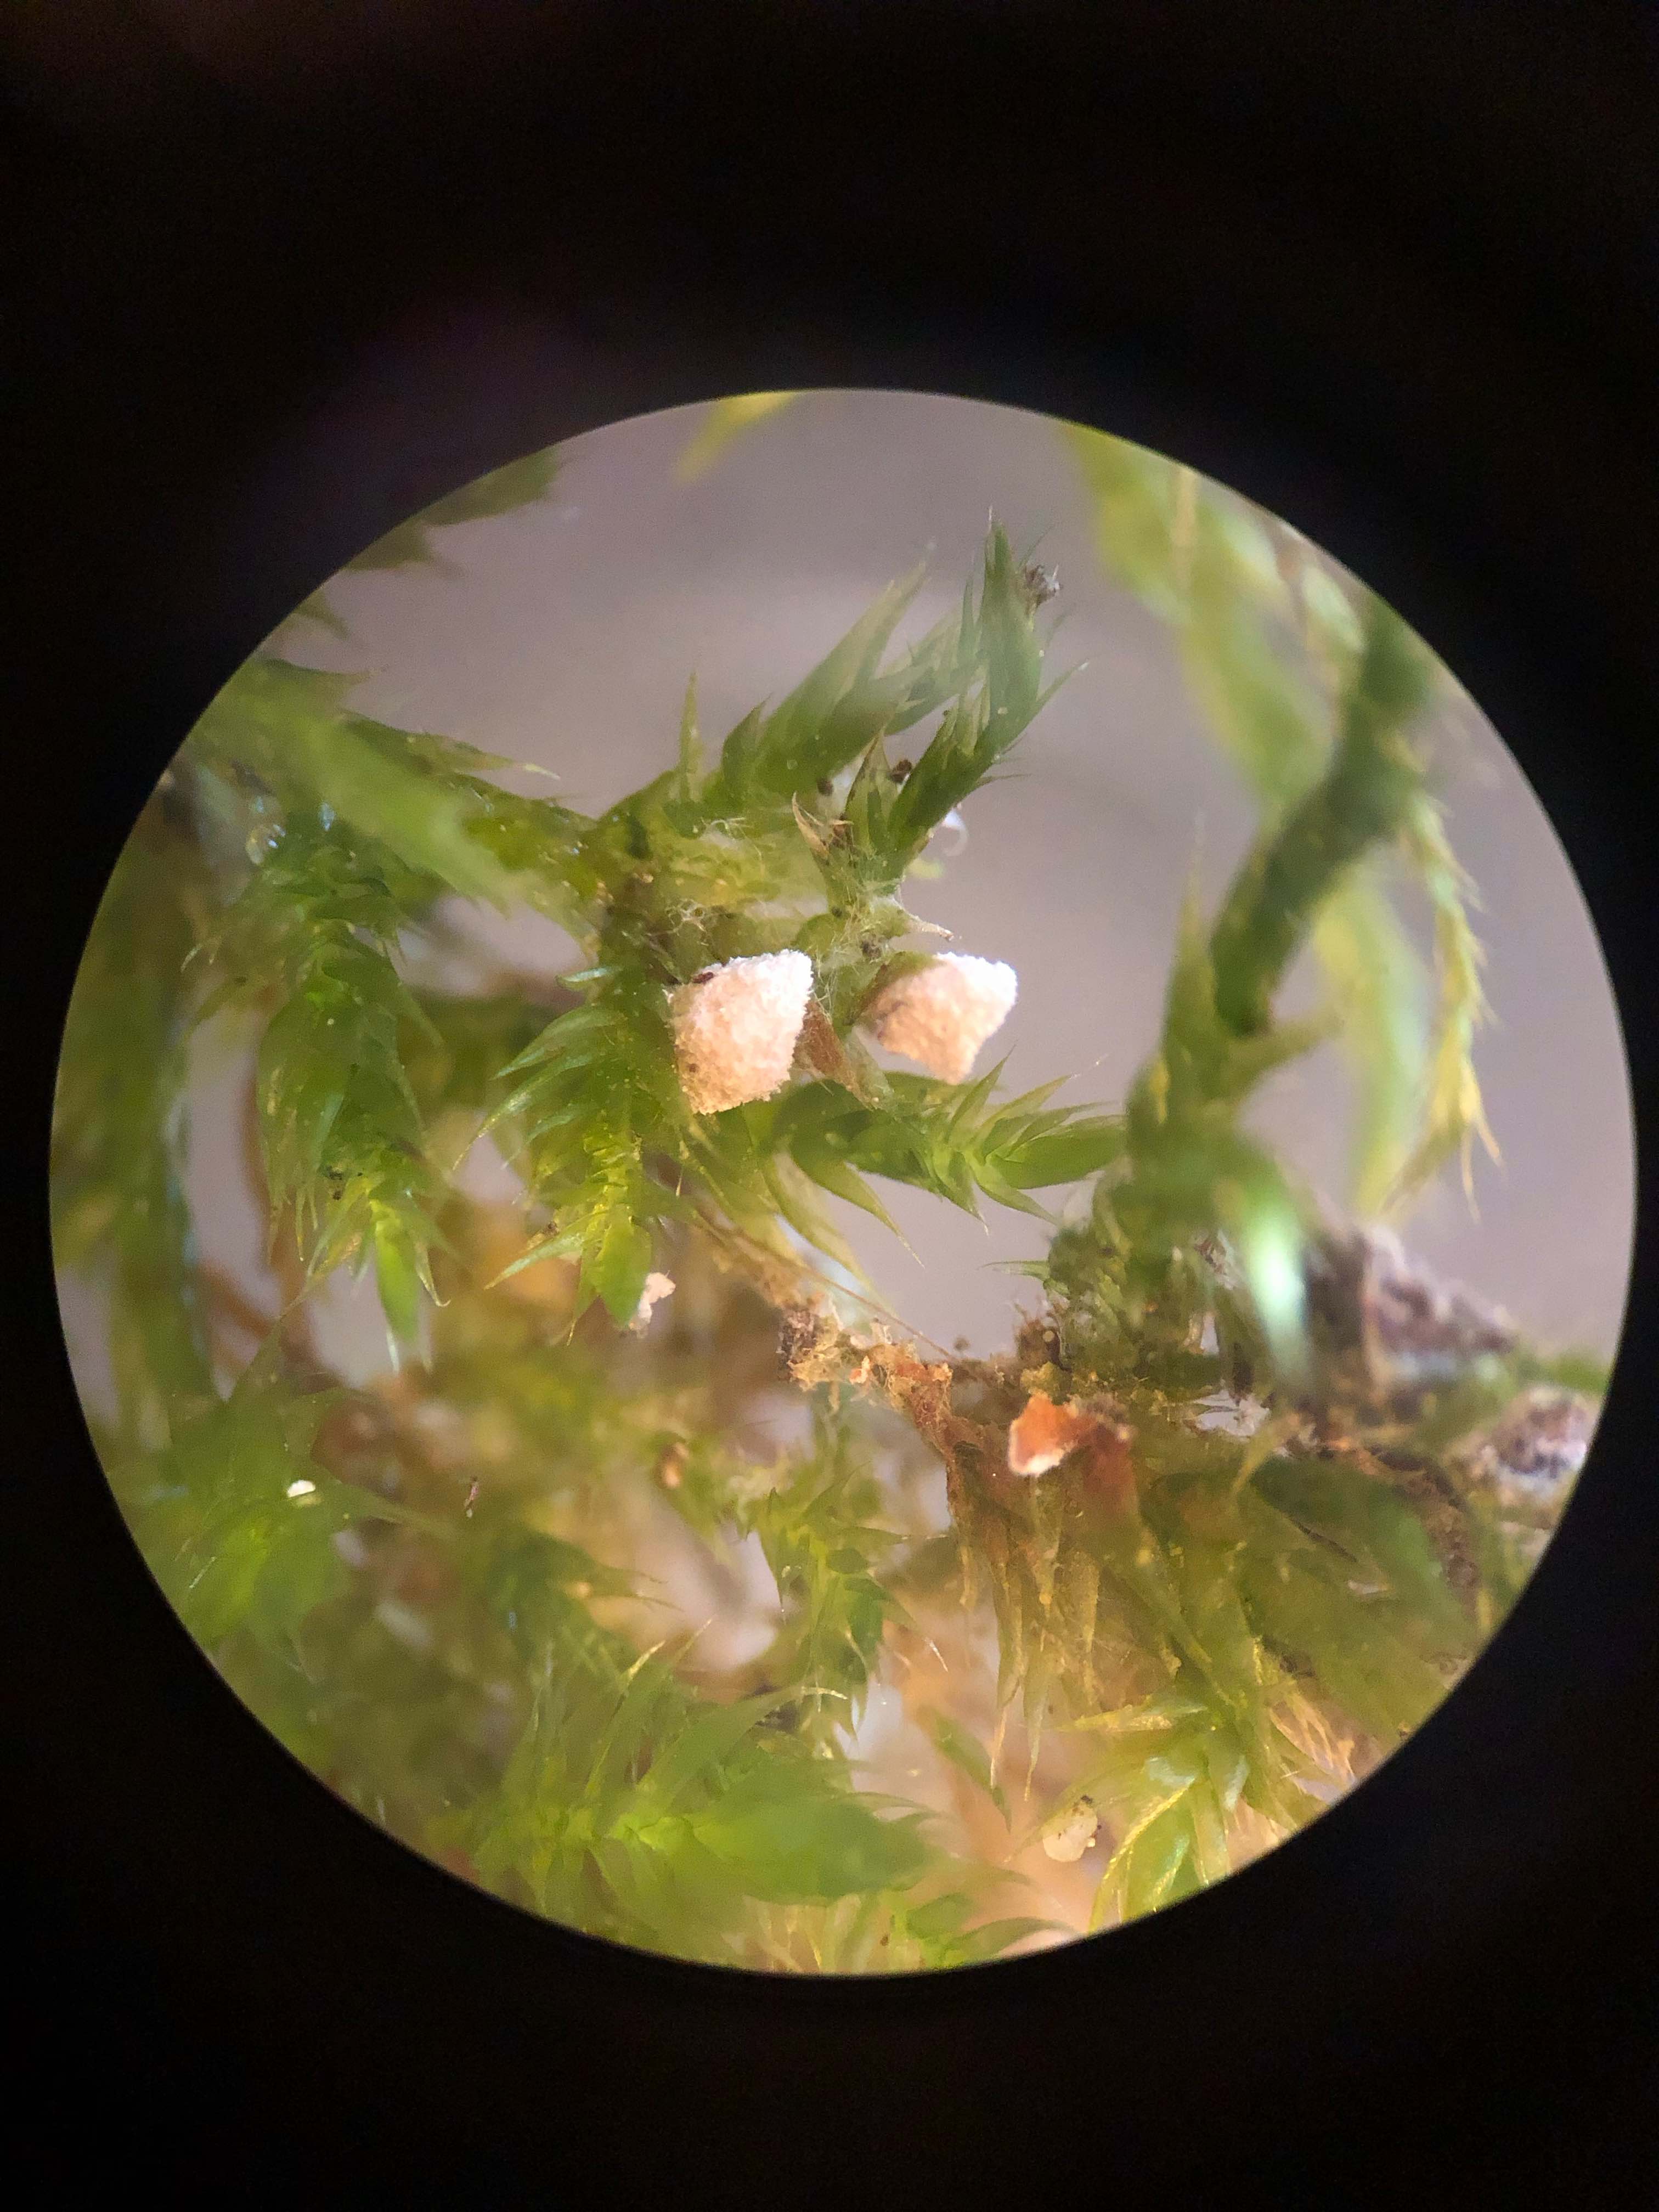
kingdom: Fungi
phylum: Basidiomycota
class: Agaricomycetes
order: Agaricales
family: Chromocyphellaceae
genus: Chromocyphella
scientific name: Chromocyphella muscicola
